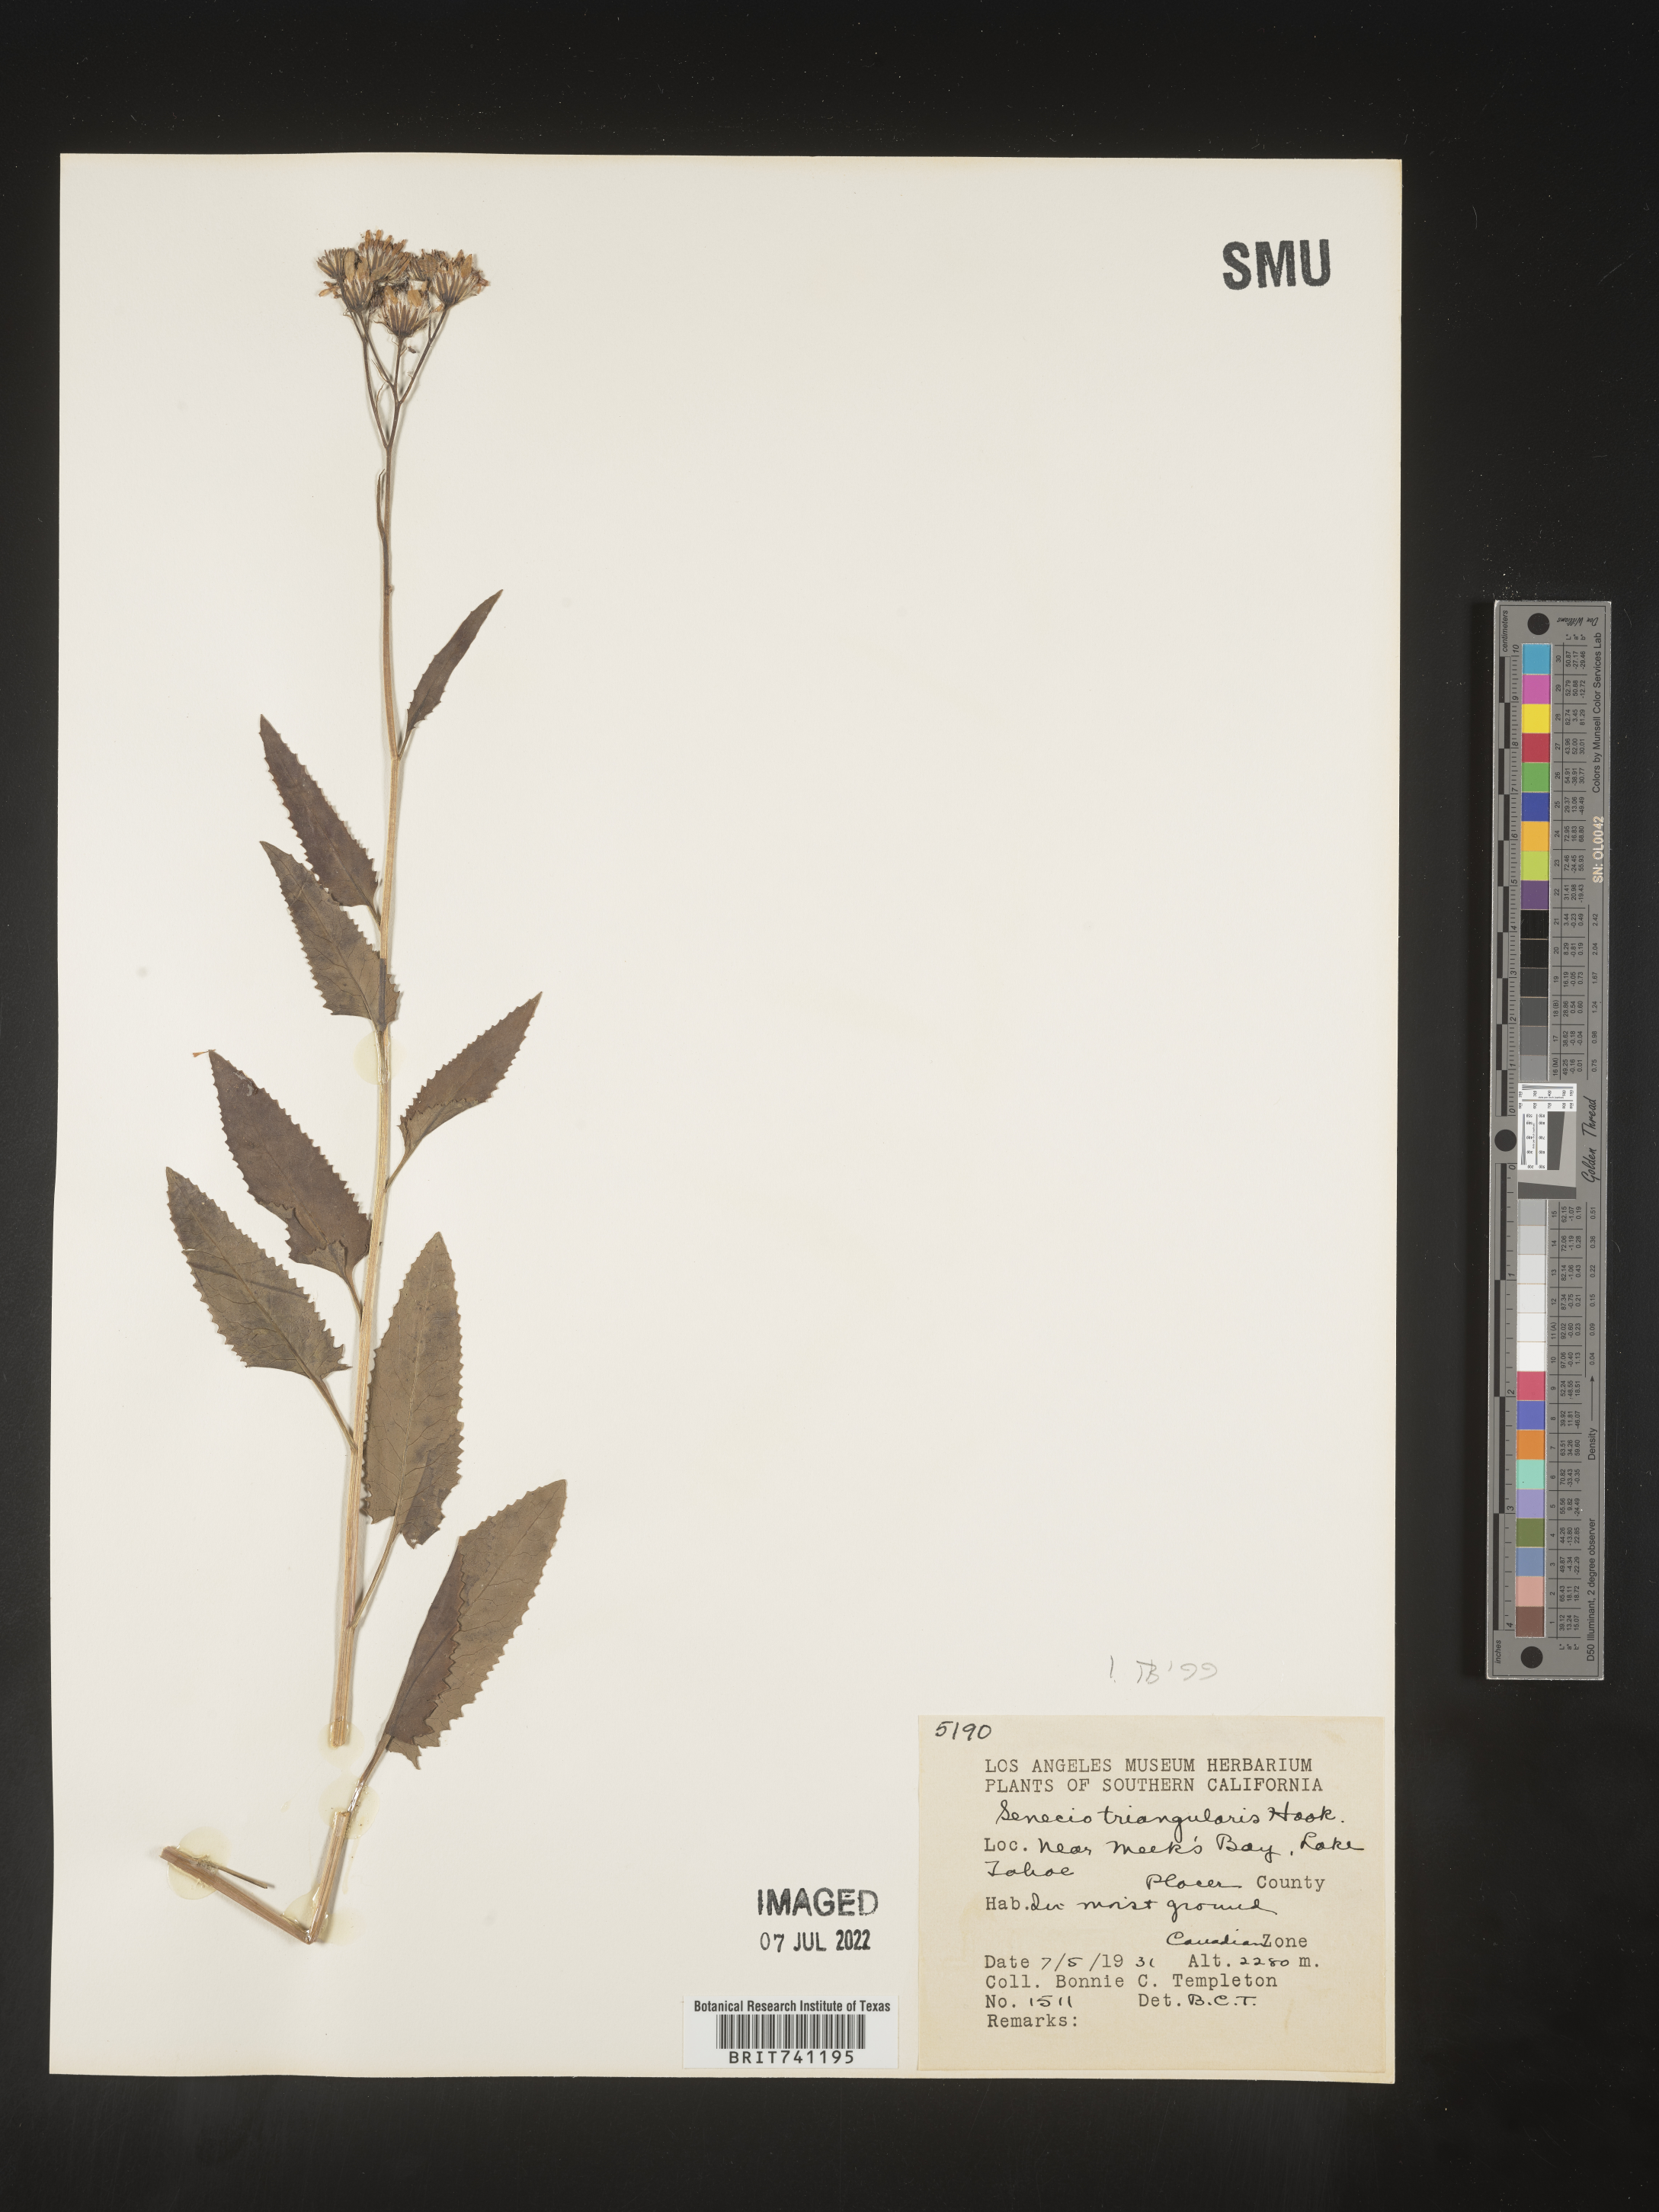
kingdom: Plantae
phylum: Tracheophyta
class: Magnoliopsida
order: Asterales
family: Asteraceae
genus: Senecio
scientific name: Senecio triangularis
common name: Arrowleaf butterweed
